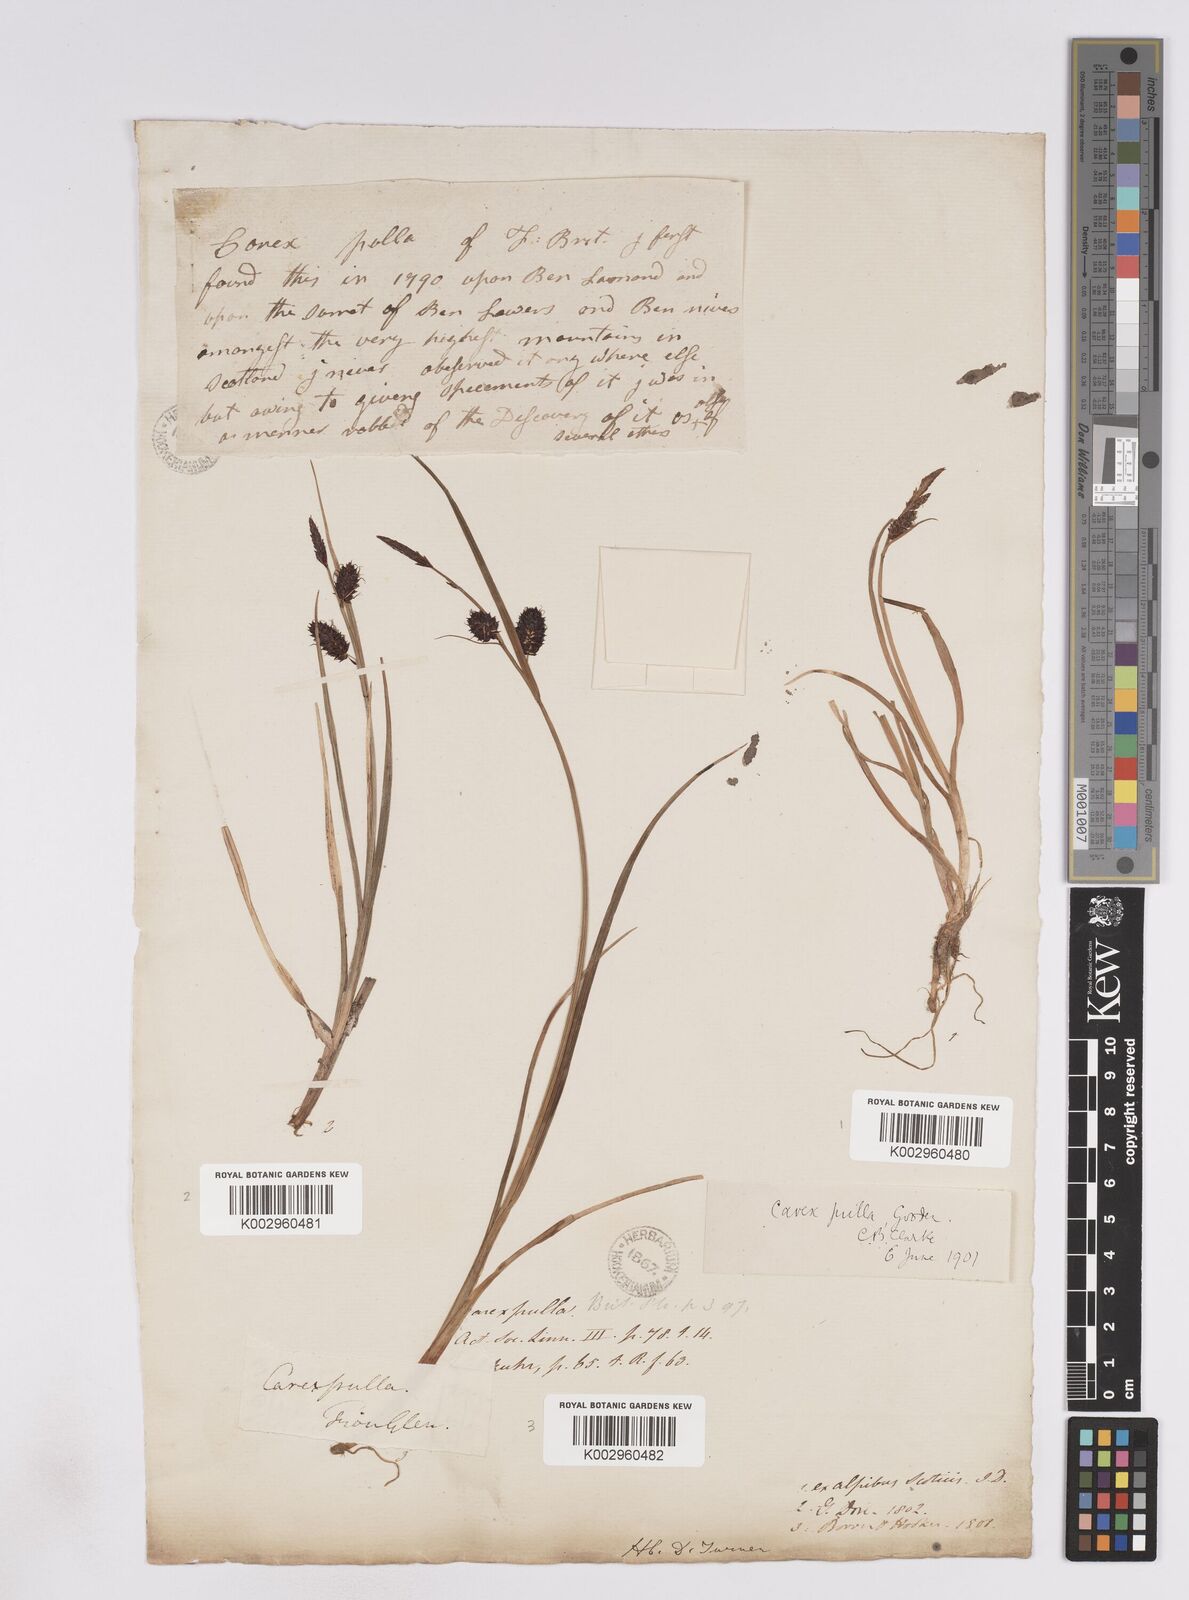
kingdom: Plantae
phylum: Tracheophyta
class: Liliopsida
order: Poales
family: Cyperaceae
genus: Carex
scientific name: Carex saxatilis
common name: Russet sedge
